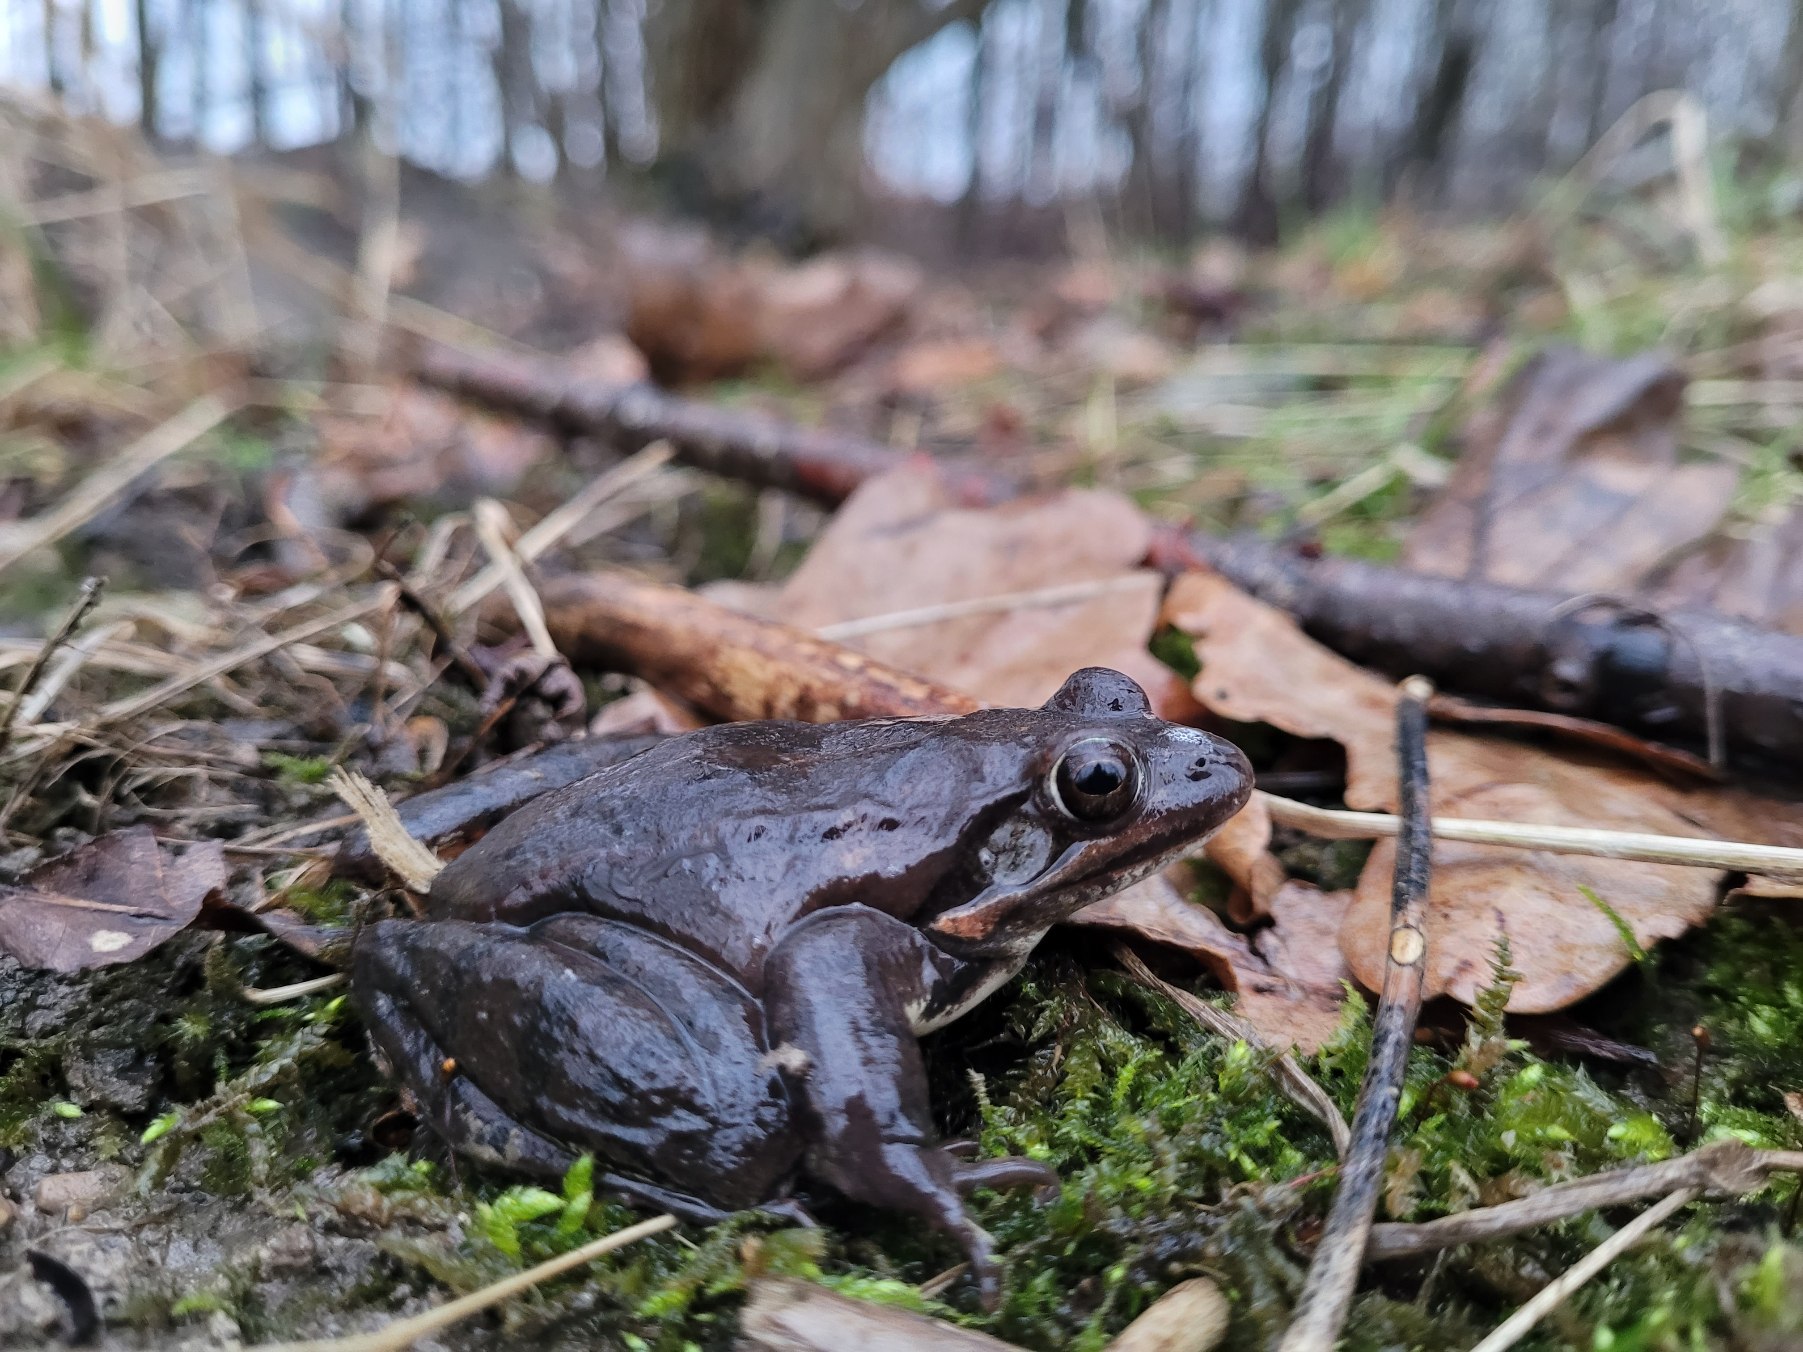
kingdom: Animalia
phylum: Chordata
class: Amphibia
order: Anura
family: Ranidae
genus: Rana
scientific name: Rana dalmatina
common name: Springfrø
